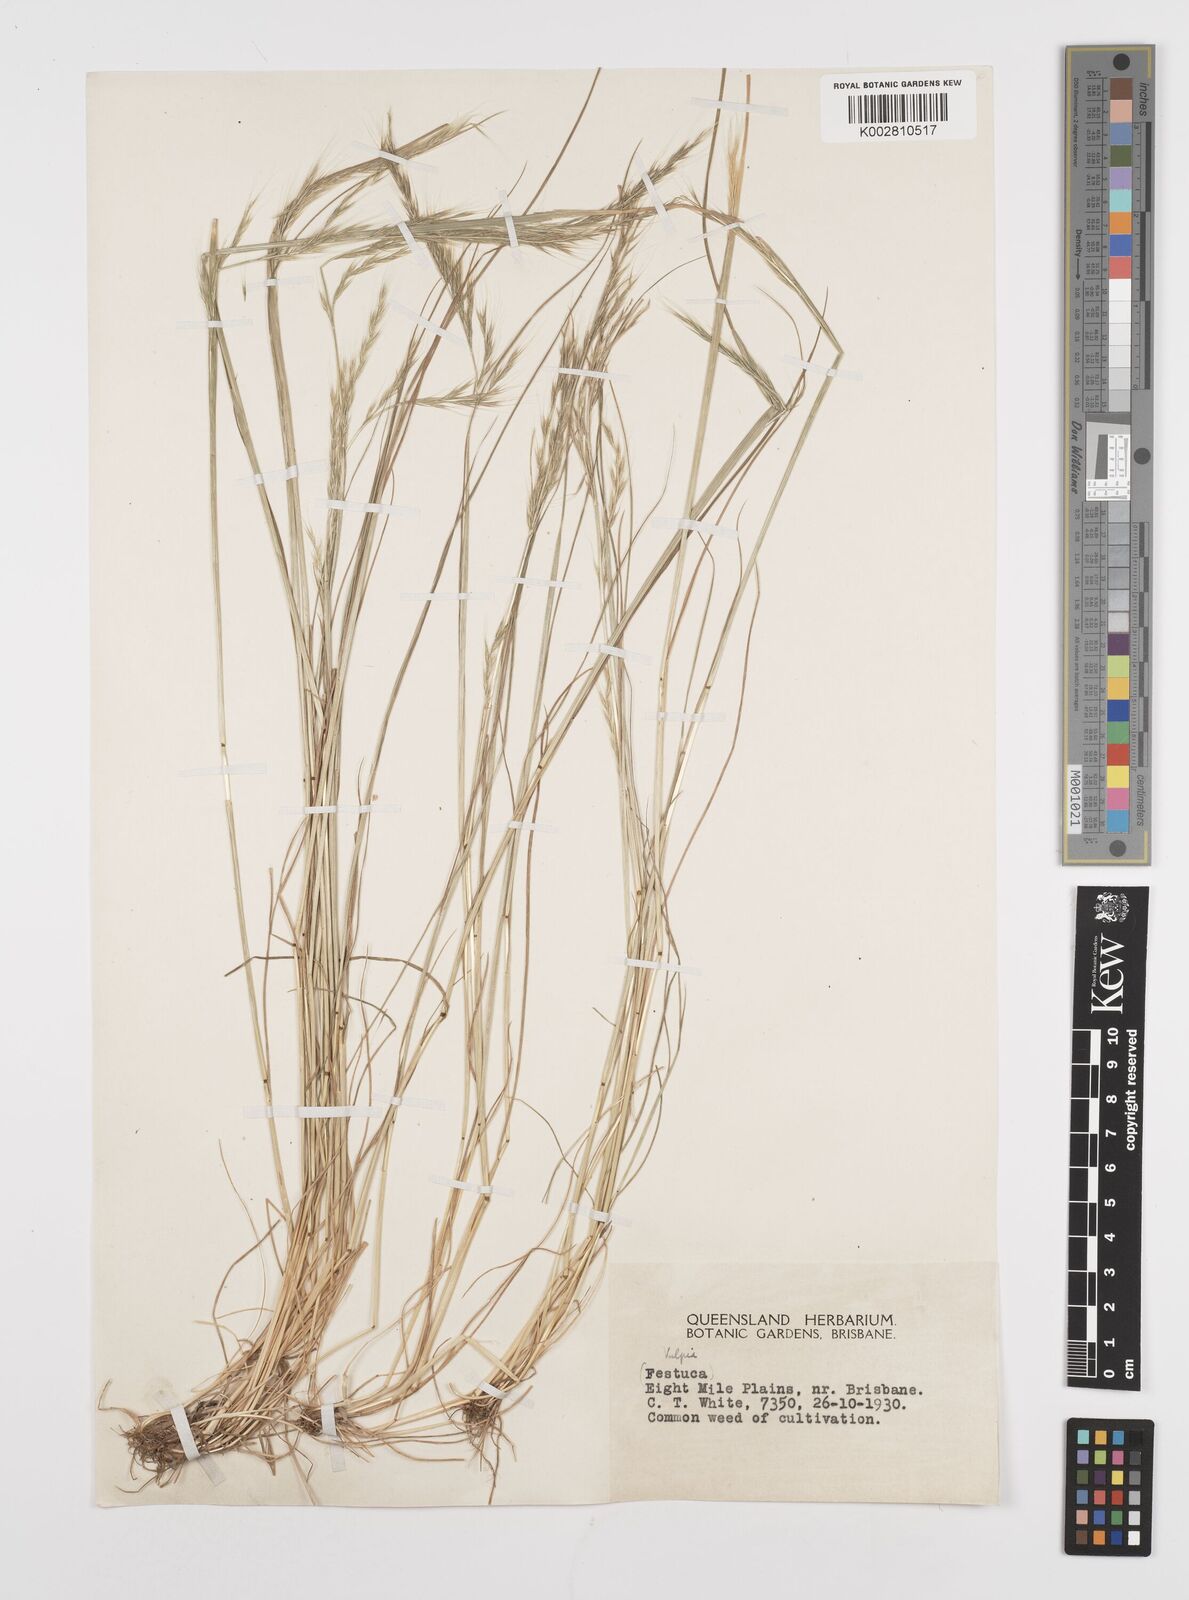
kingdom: Plantae
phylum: Tracheophyta
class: Liliopsida
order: Poales
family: Poaceae
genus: Festuca
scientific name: Festuca myuros
